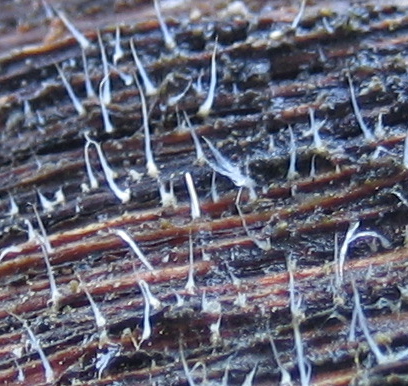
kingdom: Fungi
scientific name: Fungi
